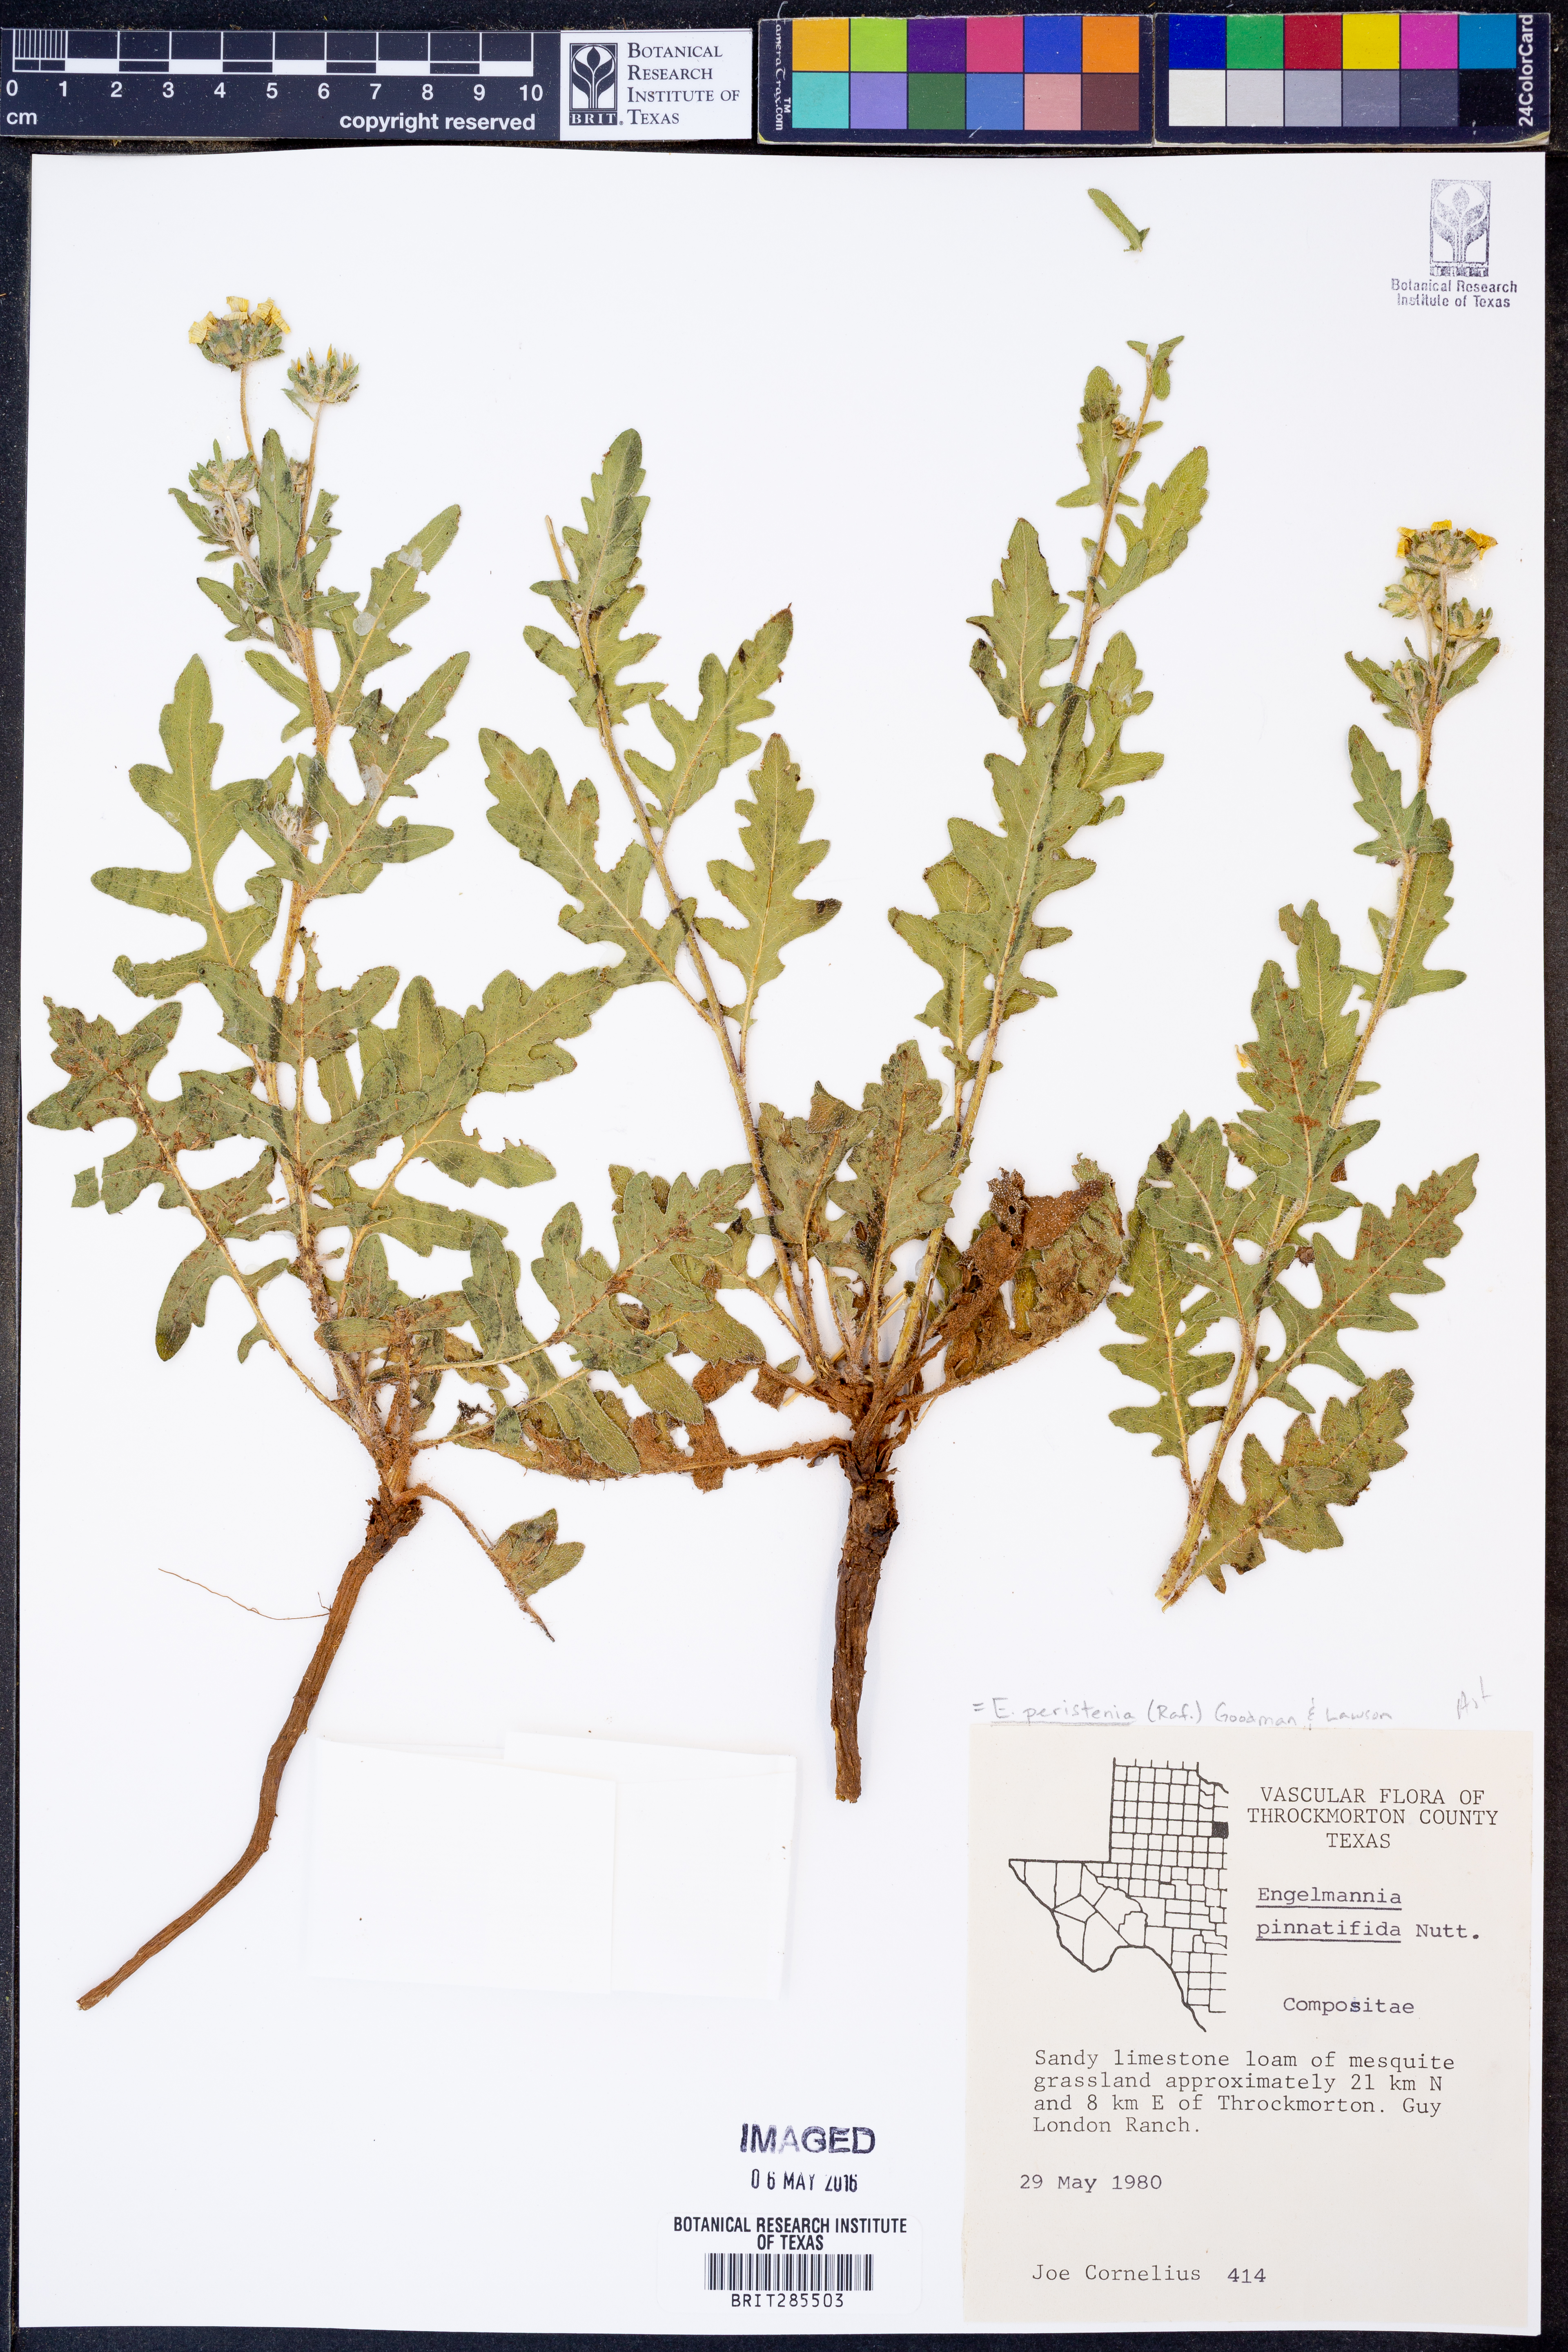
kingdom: Plantae
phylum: Tracheophyta
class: Magnoliopsida
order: Asterales
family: Asteraceae
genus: Engelmannia
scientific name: Engelmannia peristenia
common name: Engelmann's daisy
